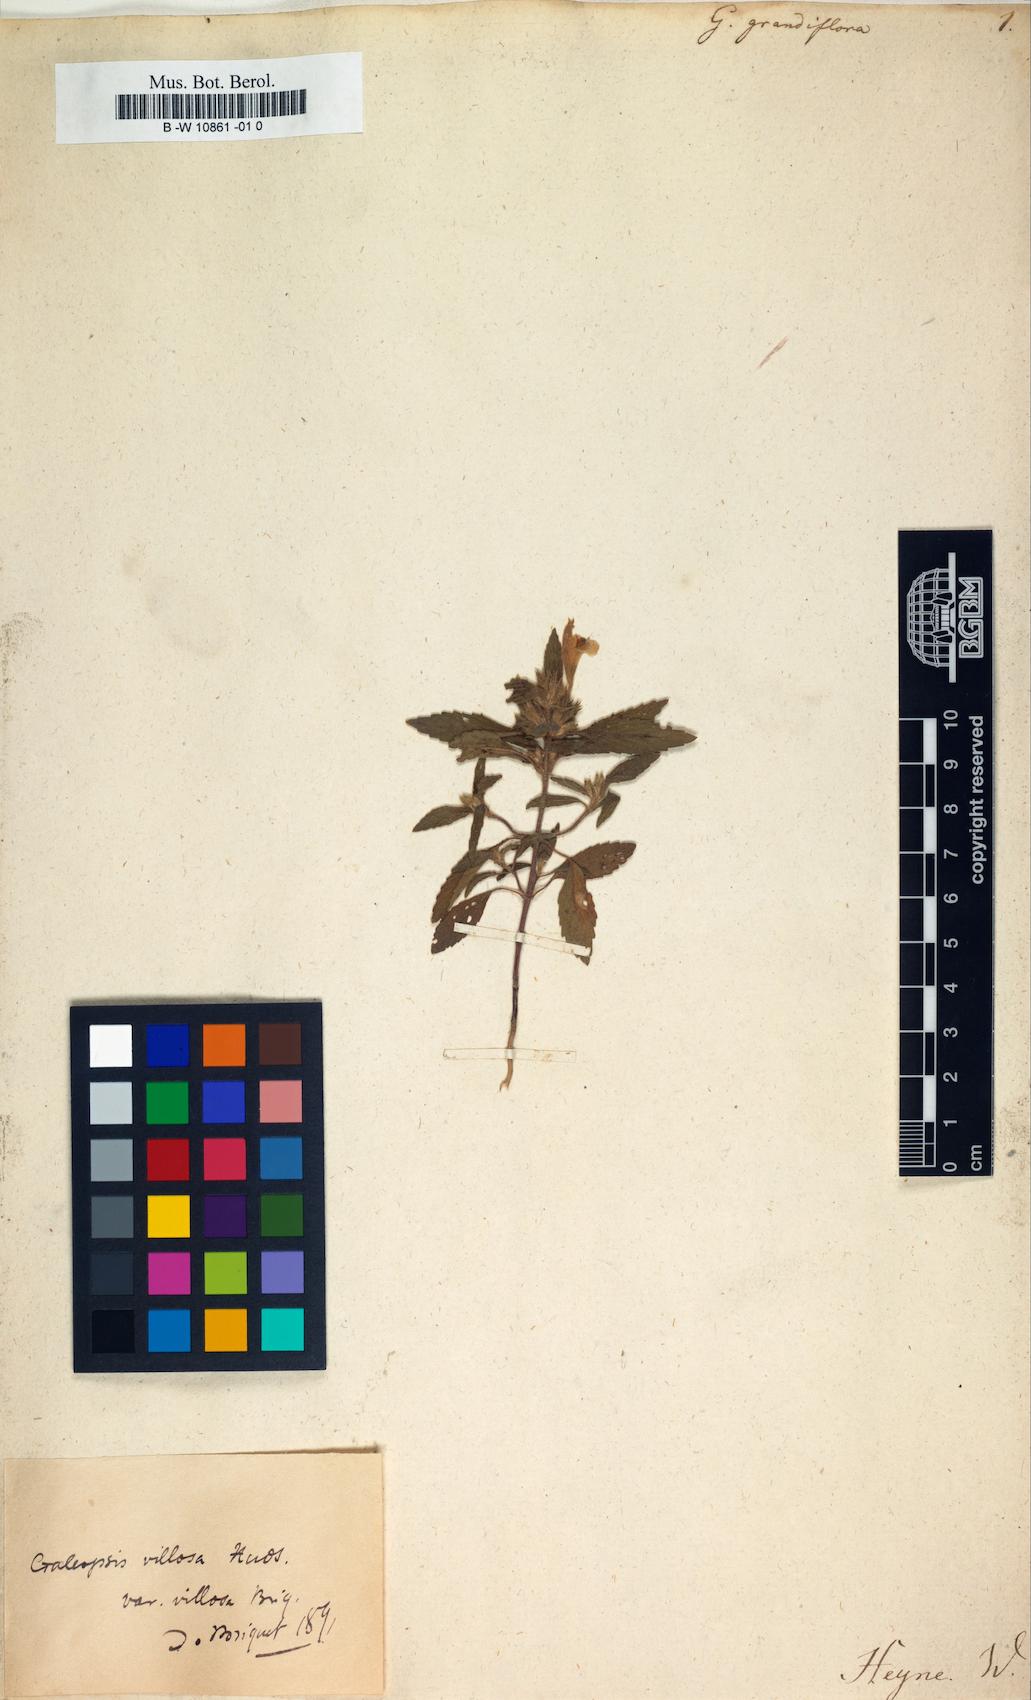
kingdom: Plantae
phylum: Tracheophyta
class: Magnoliopsida
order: Lamiales
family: Lamiaceae
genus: Galeopsis
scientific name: Galeopsis
